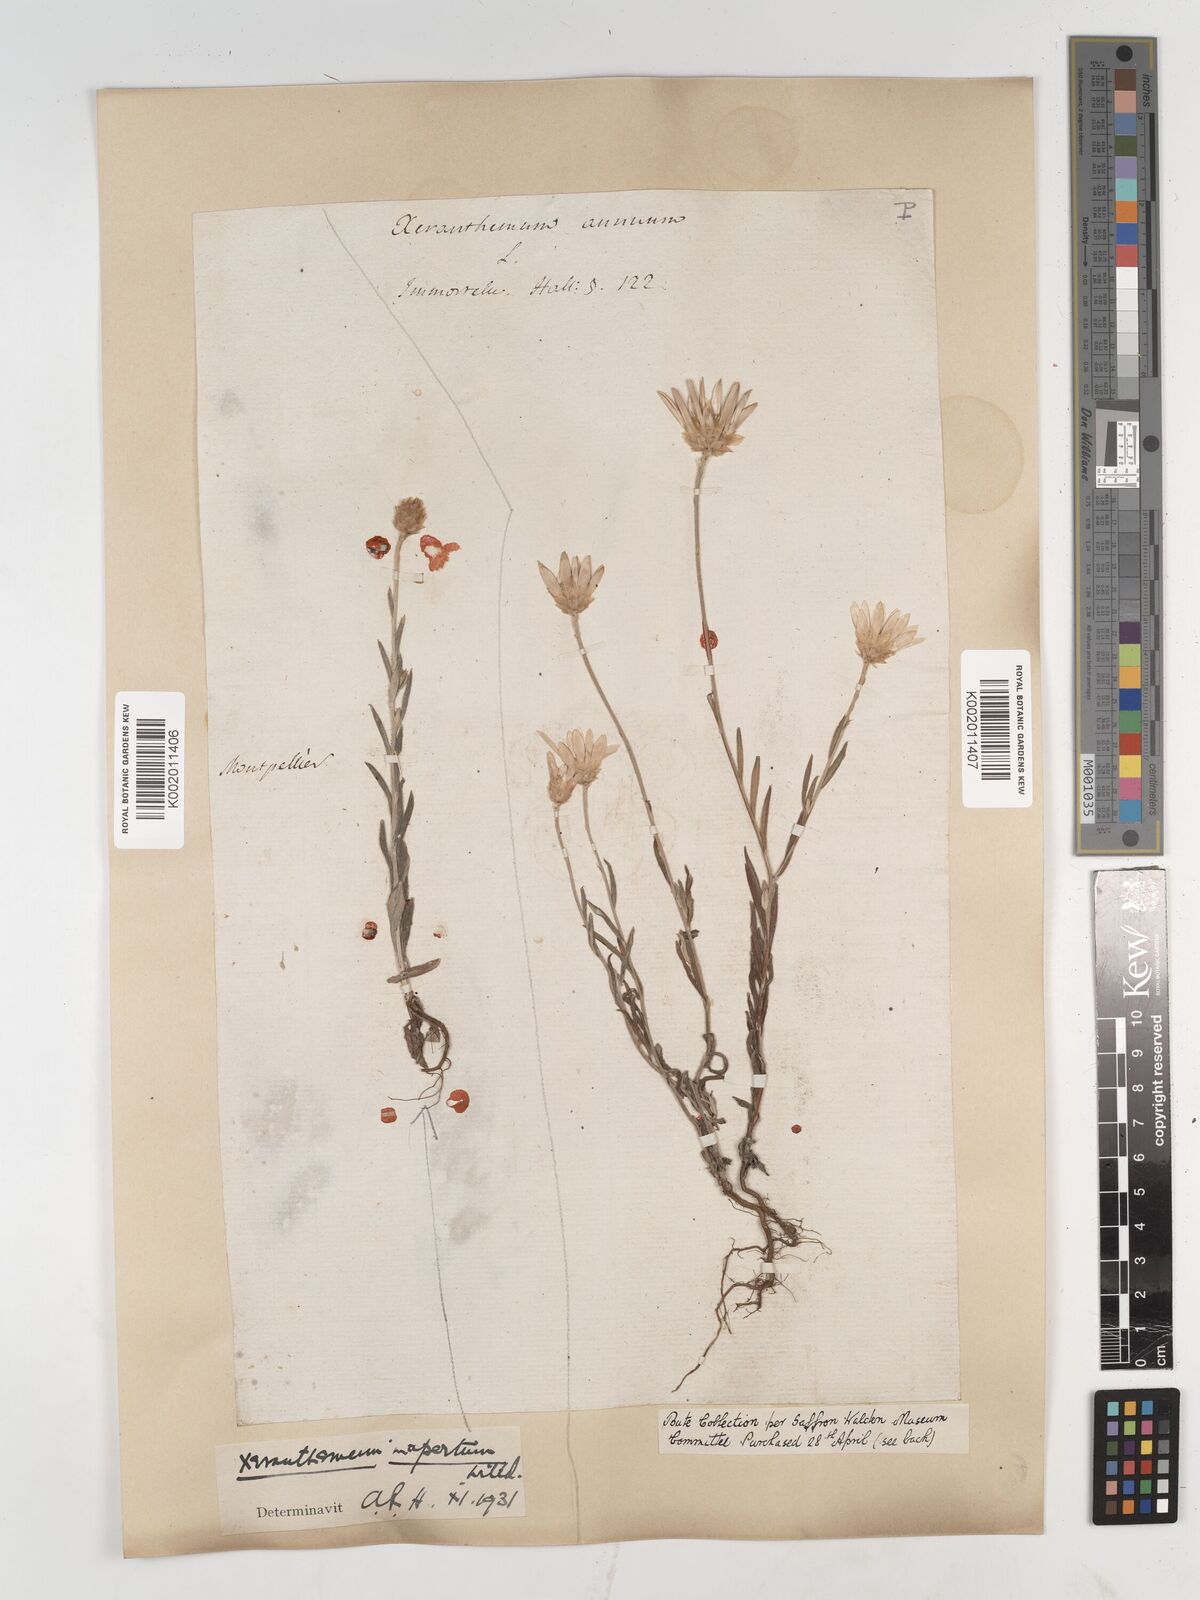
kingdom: Plantae
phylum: Tracheophyta
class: Magnoliopsida
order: Asterales
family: Asteraceae
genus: Xeranthemum
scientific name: Xeranthemum inapertum
